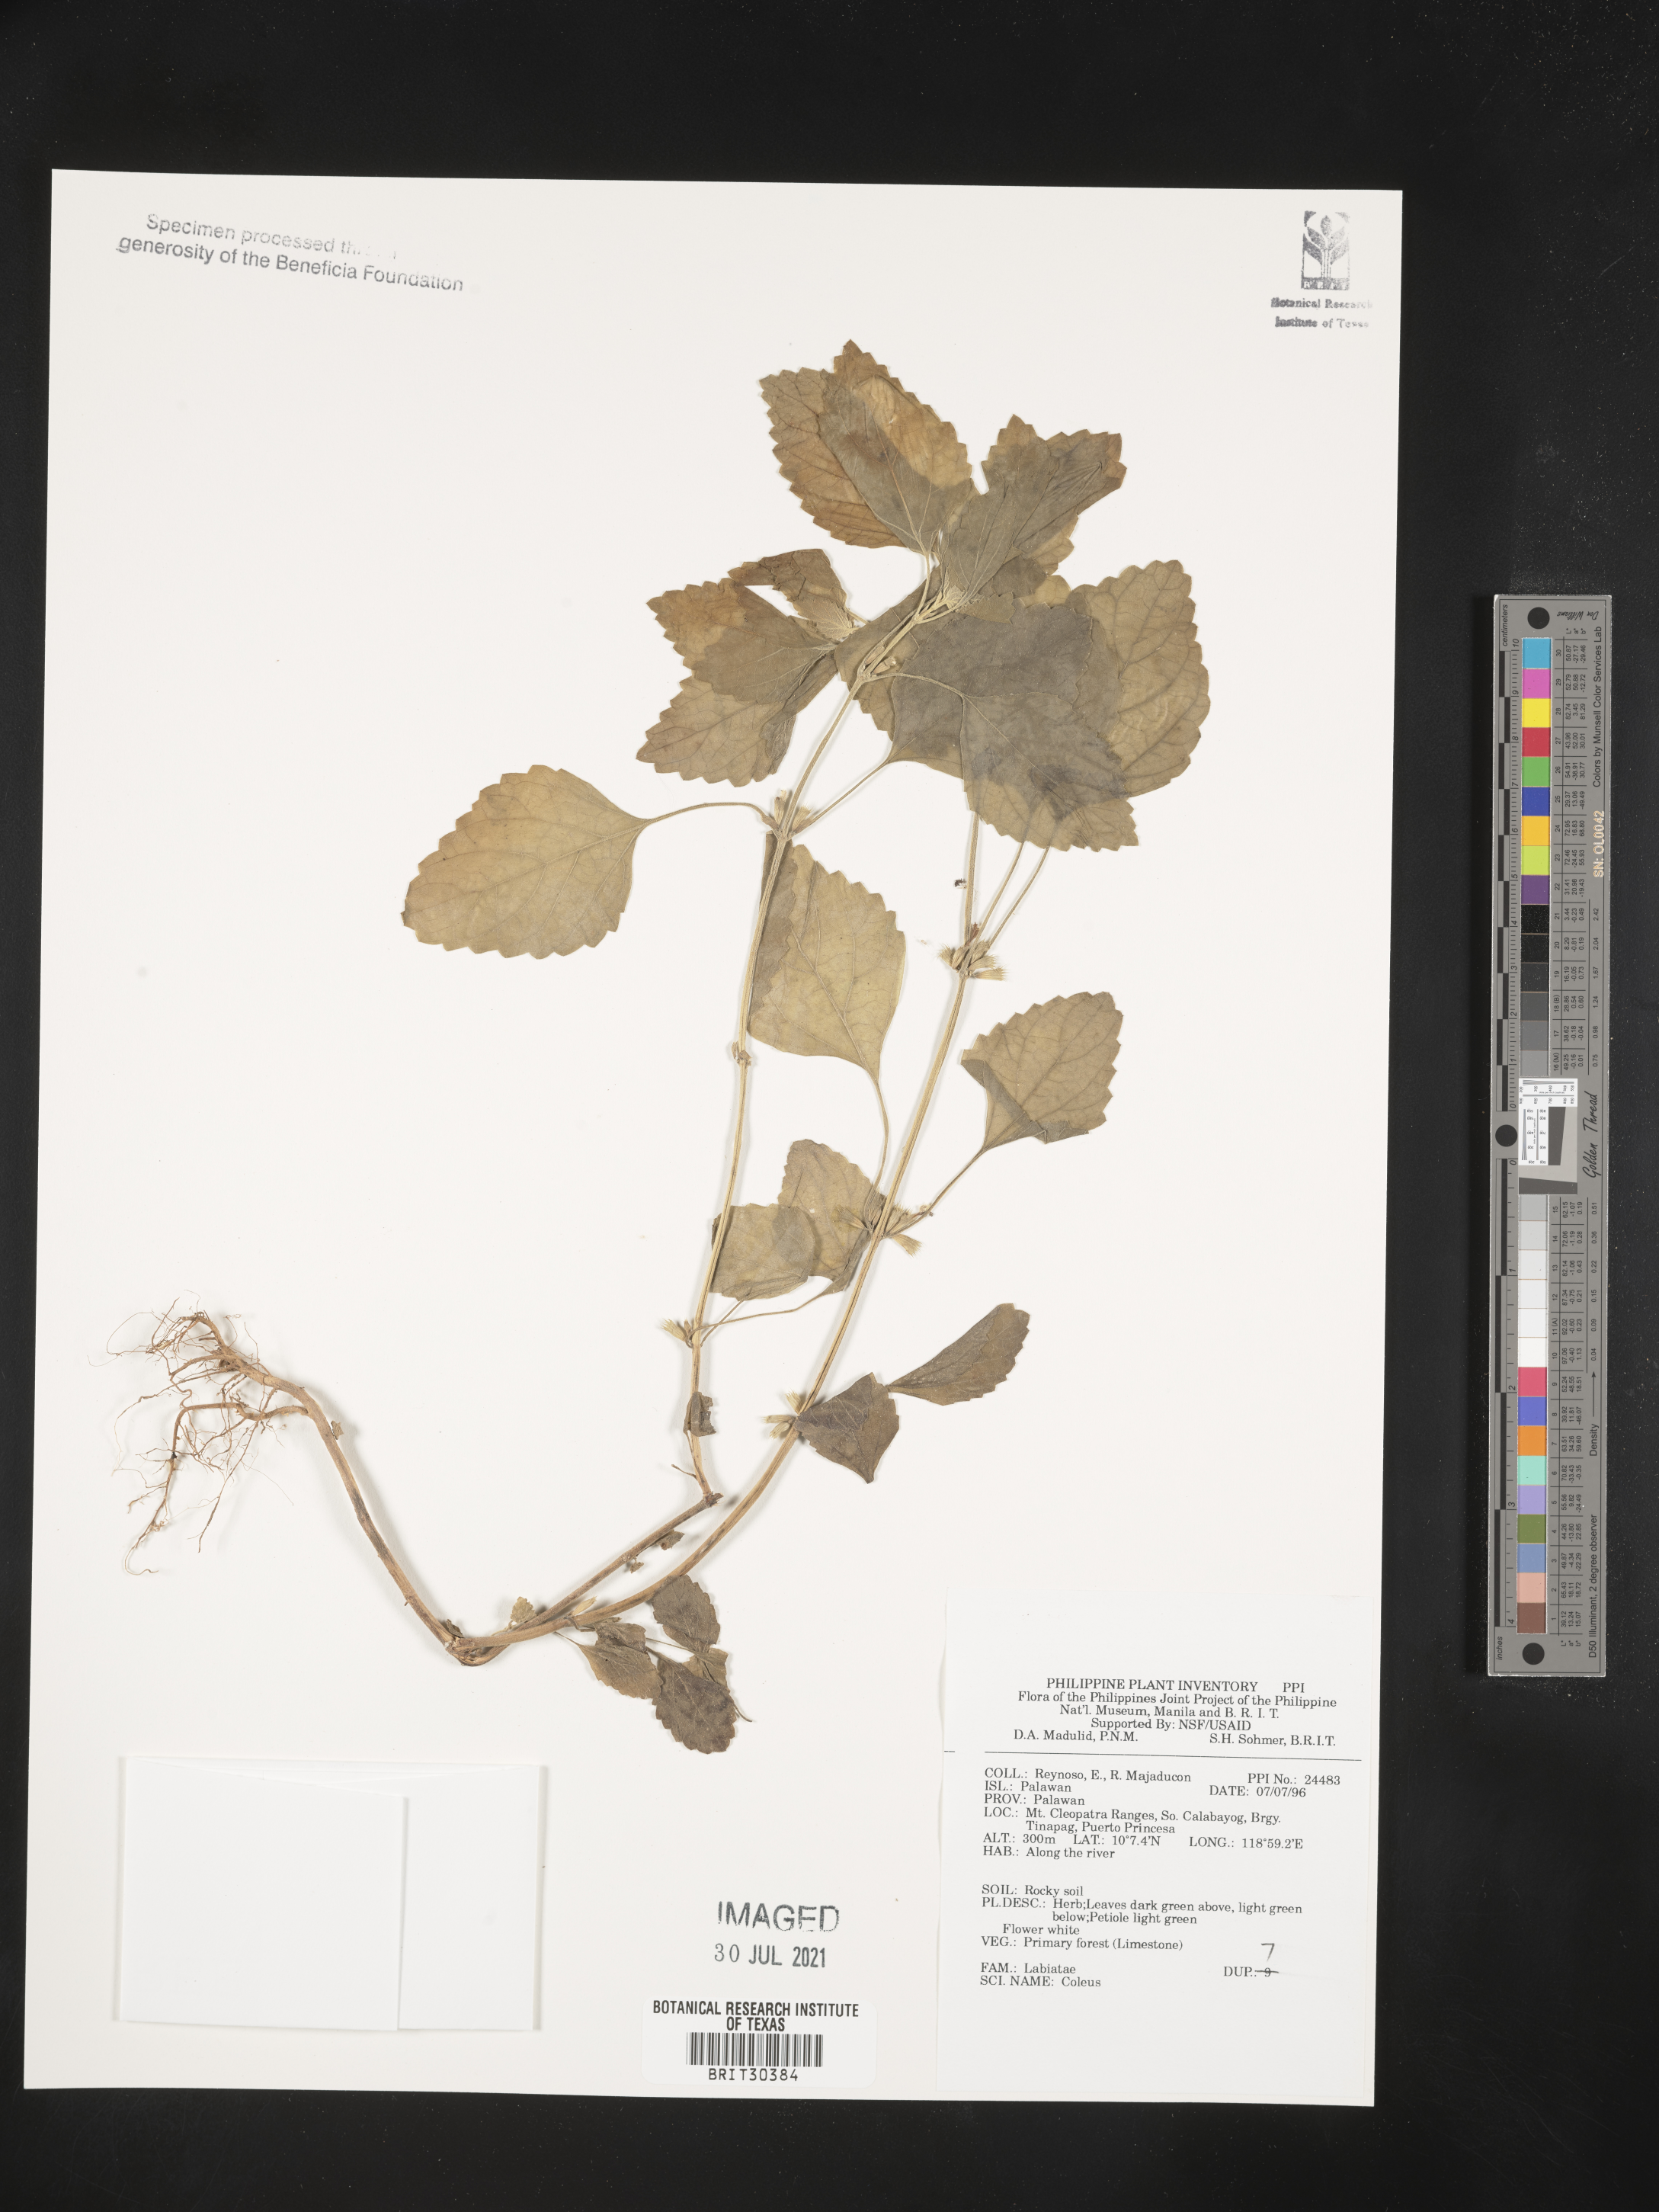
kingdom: Plantae
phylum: Tracheophyta
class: Magnoliopsida
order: Lamiales
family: Lamiaceae
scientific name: Lamiaceae
